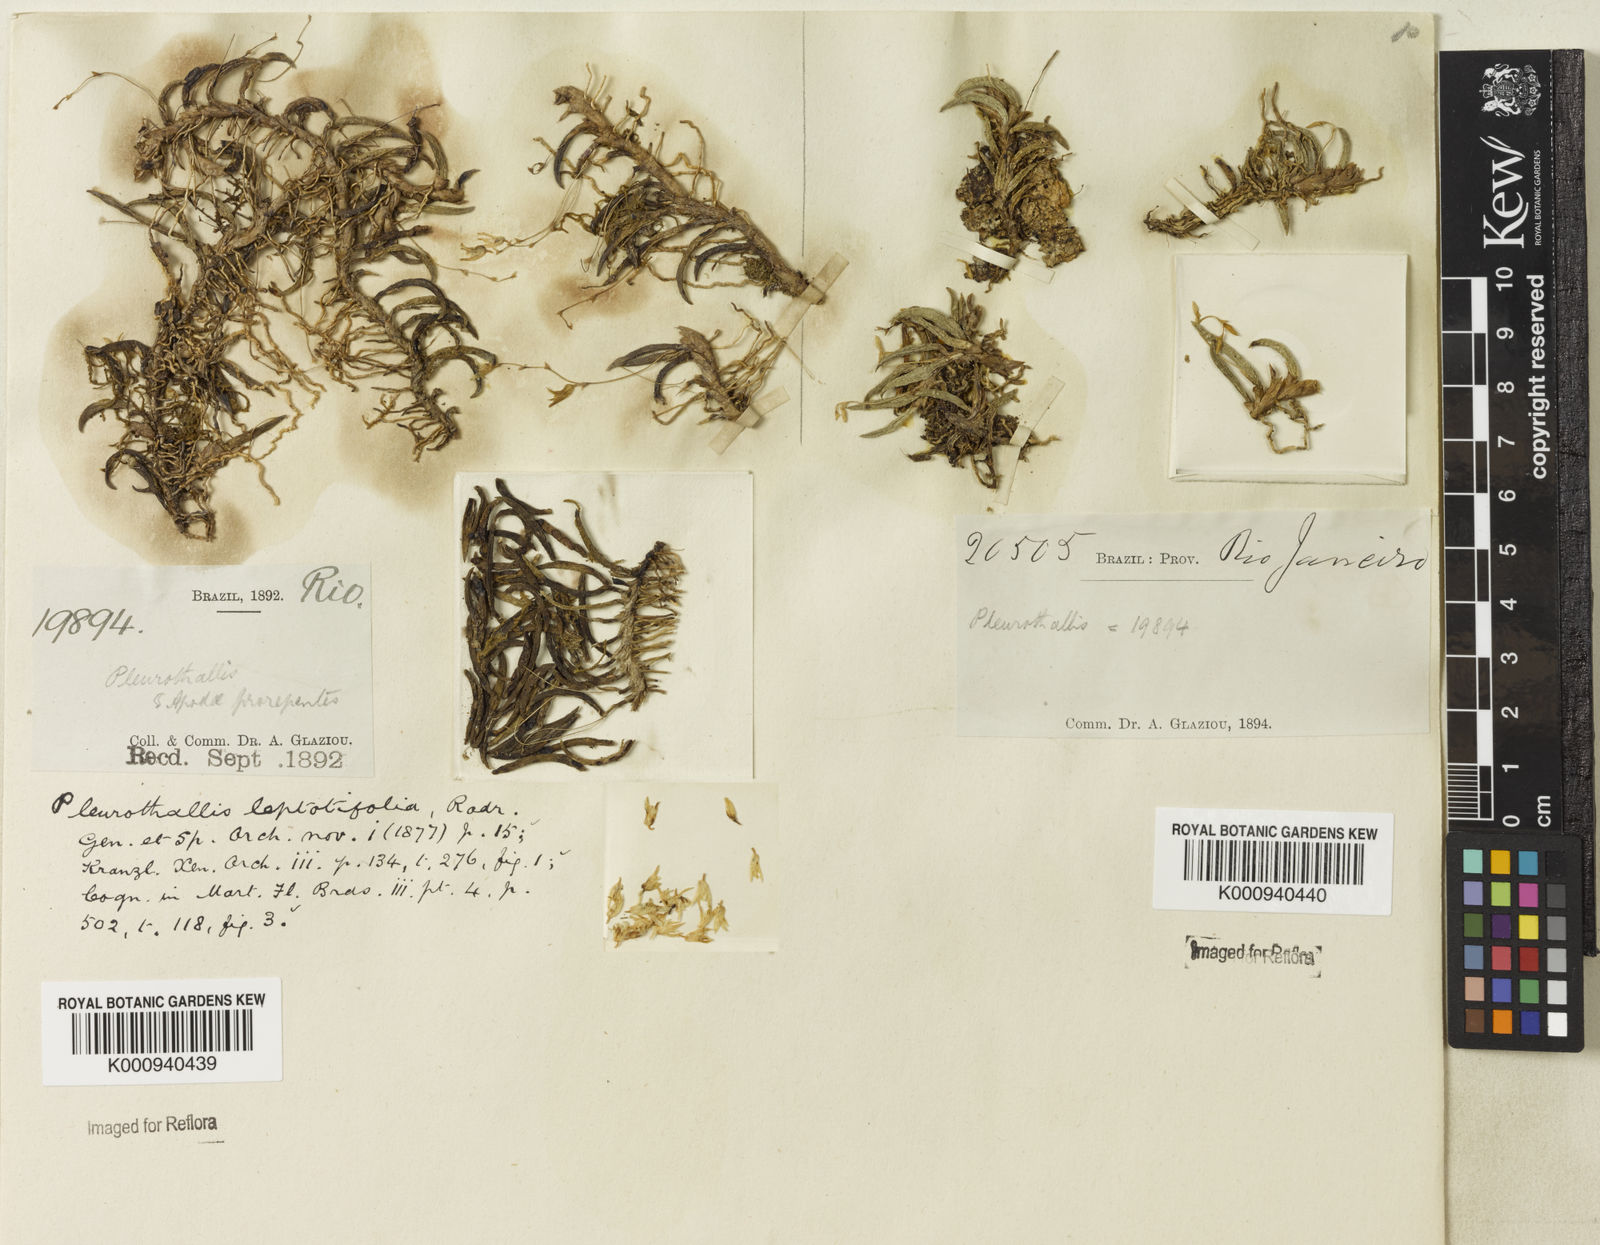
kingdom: Plantae
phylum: Tracheophyta
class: Liliopsida
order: Asparagales
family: Orchidaceae
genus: Acianthera
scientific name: Acianthera leptotifolia
